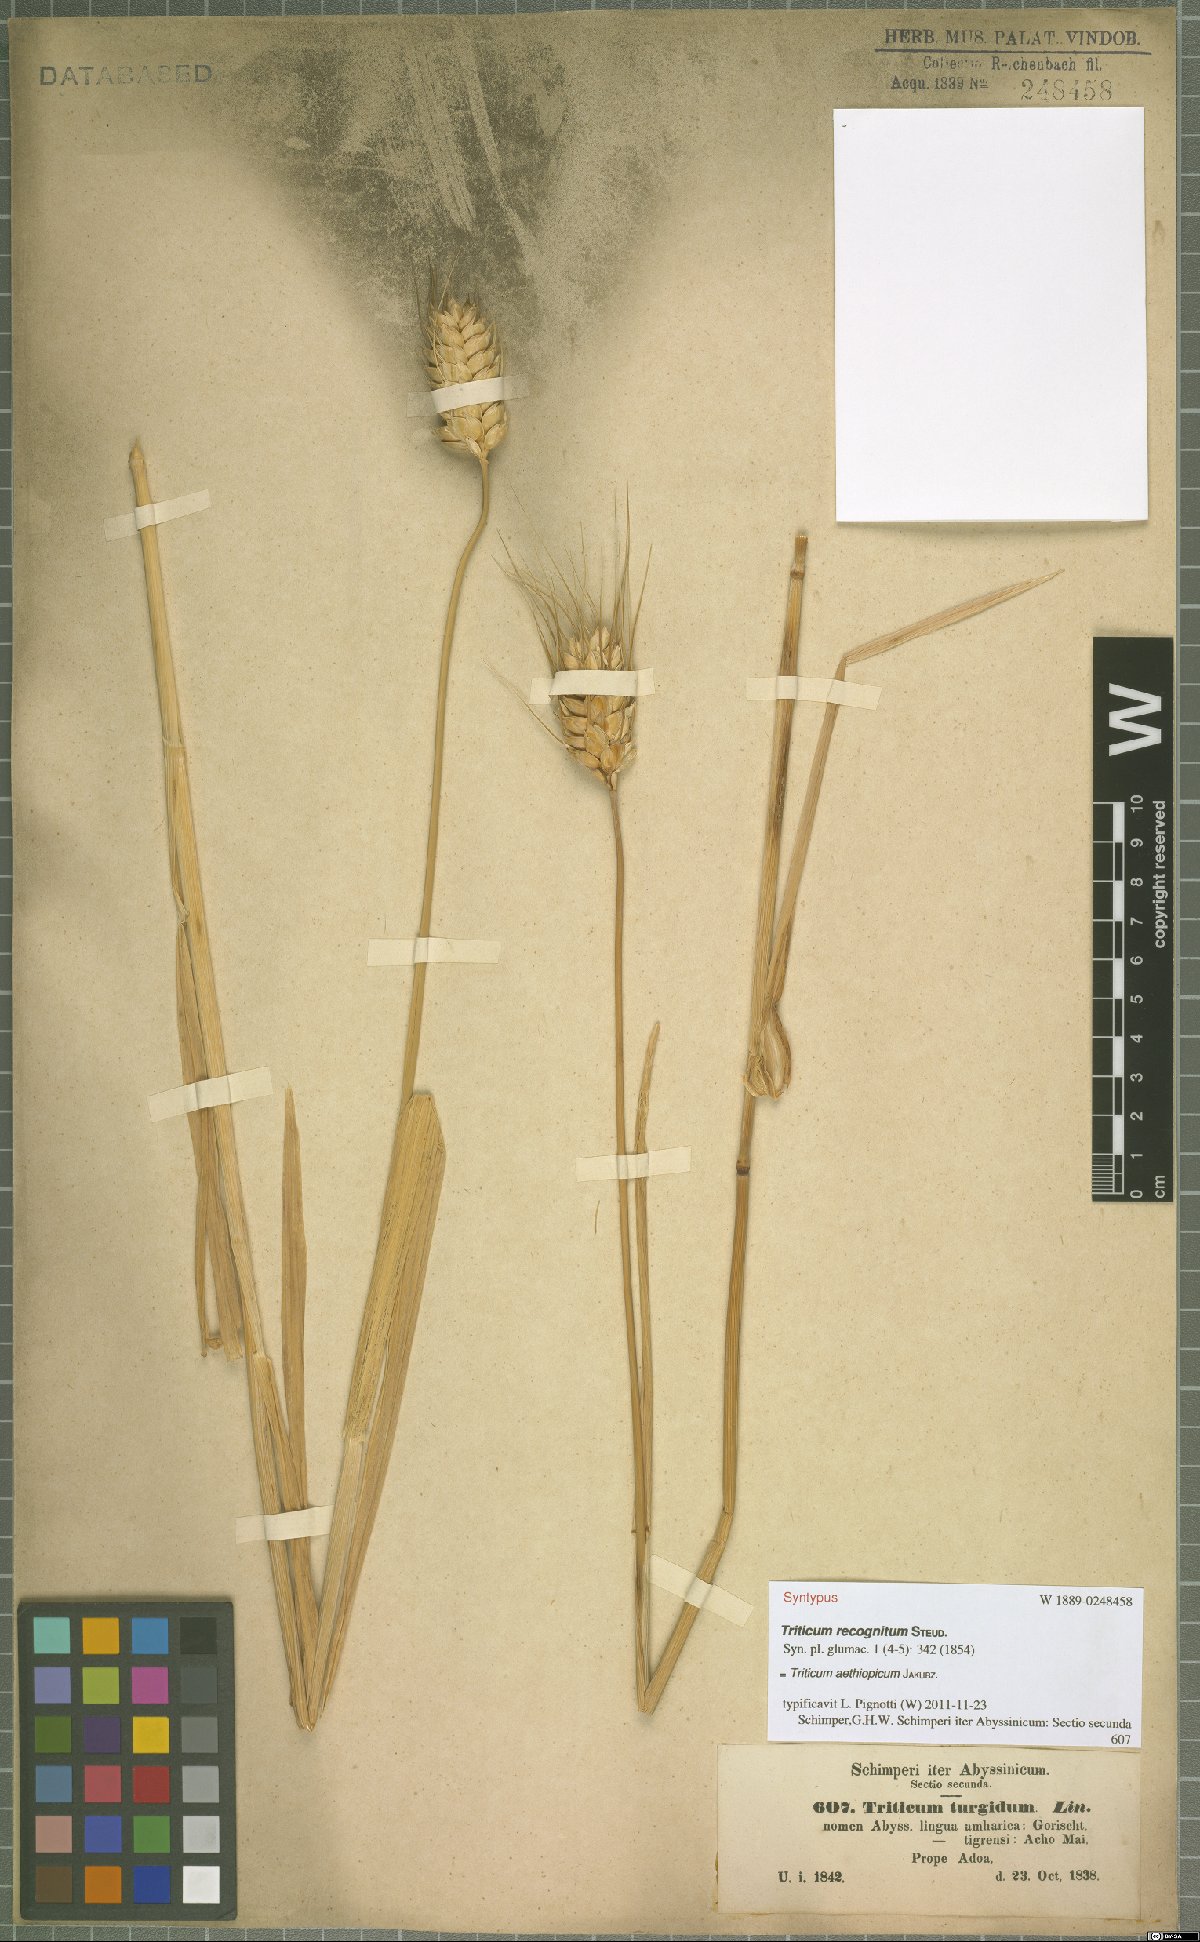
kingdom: Plantae
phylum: Tracheophyta
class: Liliopsida
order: Poales
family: Poaceae
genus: Triticum
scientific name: Triticum turgidum
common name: Rivet wheat
